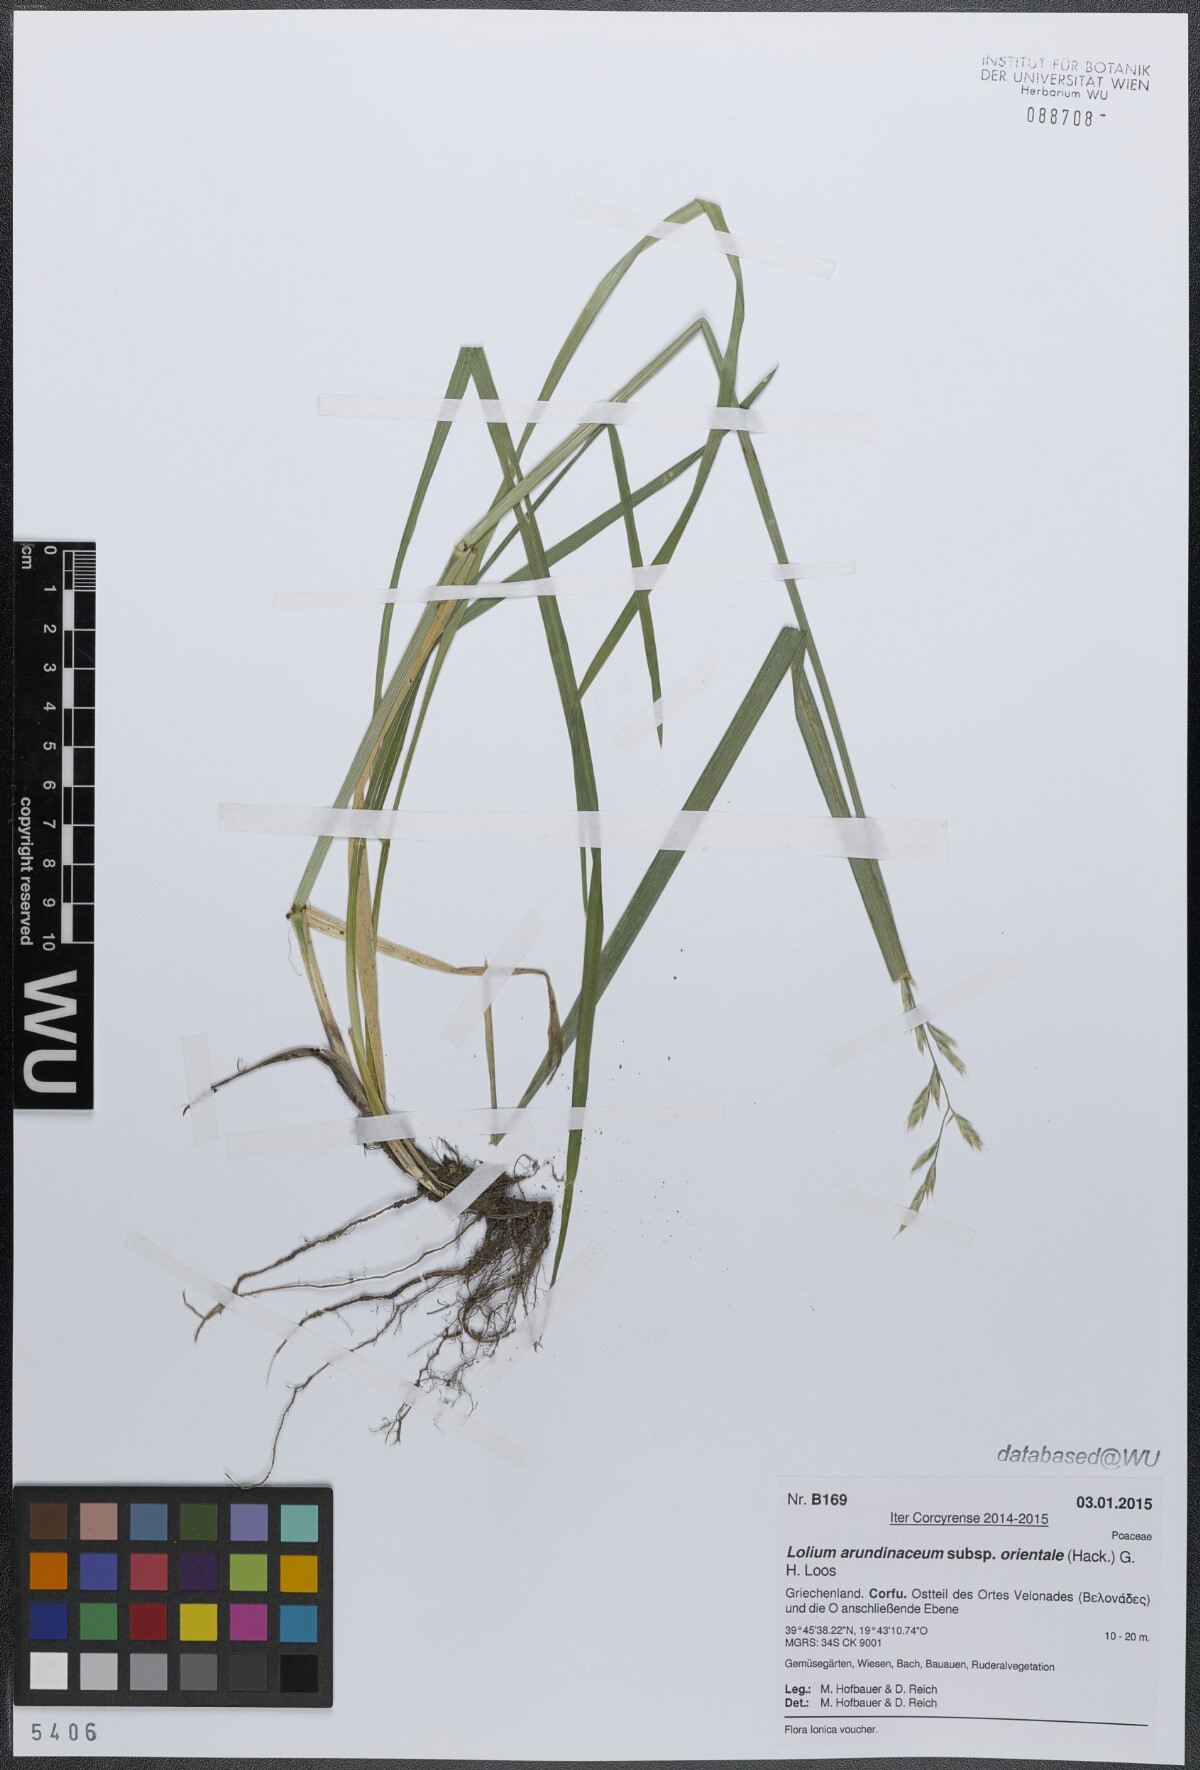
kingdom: Plantae
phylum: Tracheophyta
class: Liliopsida
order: Poales
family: Poaceae
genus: Lolium
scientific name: Lolium arundinaceum
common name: Reed fescue
